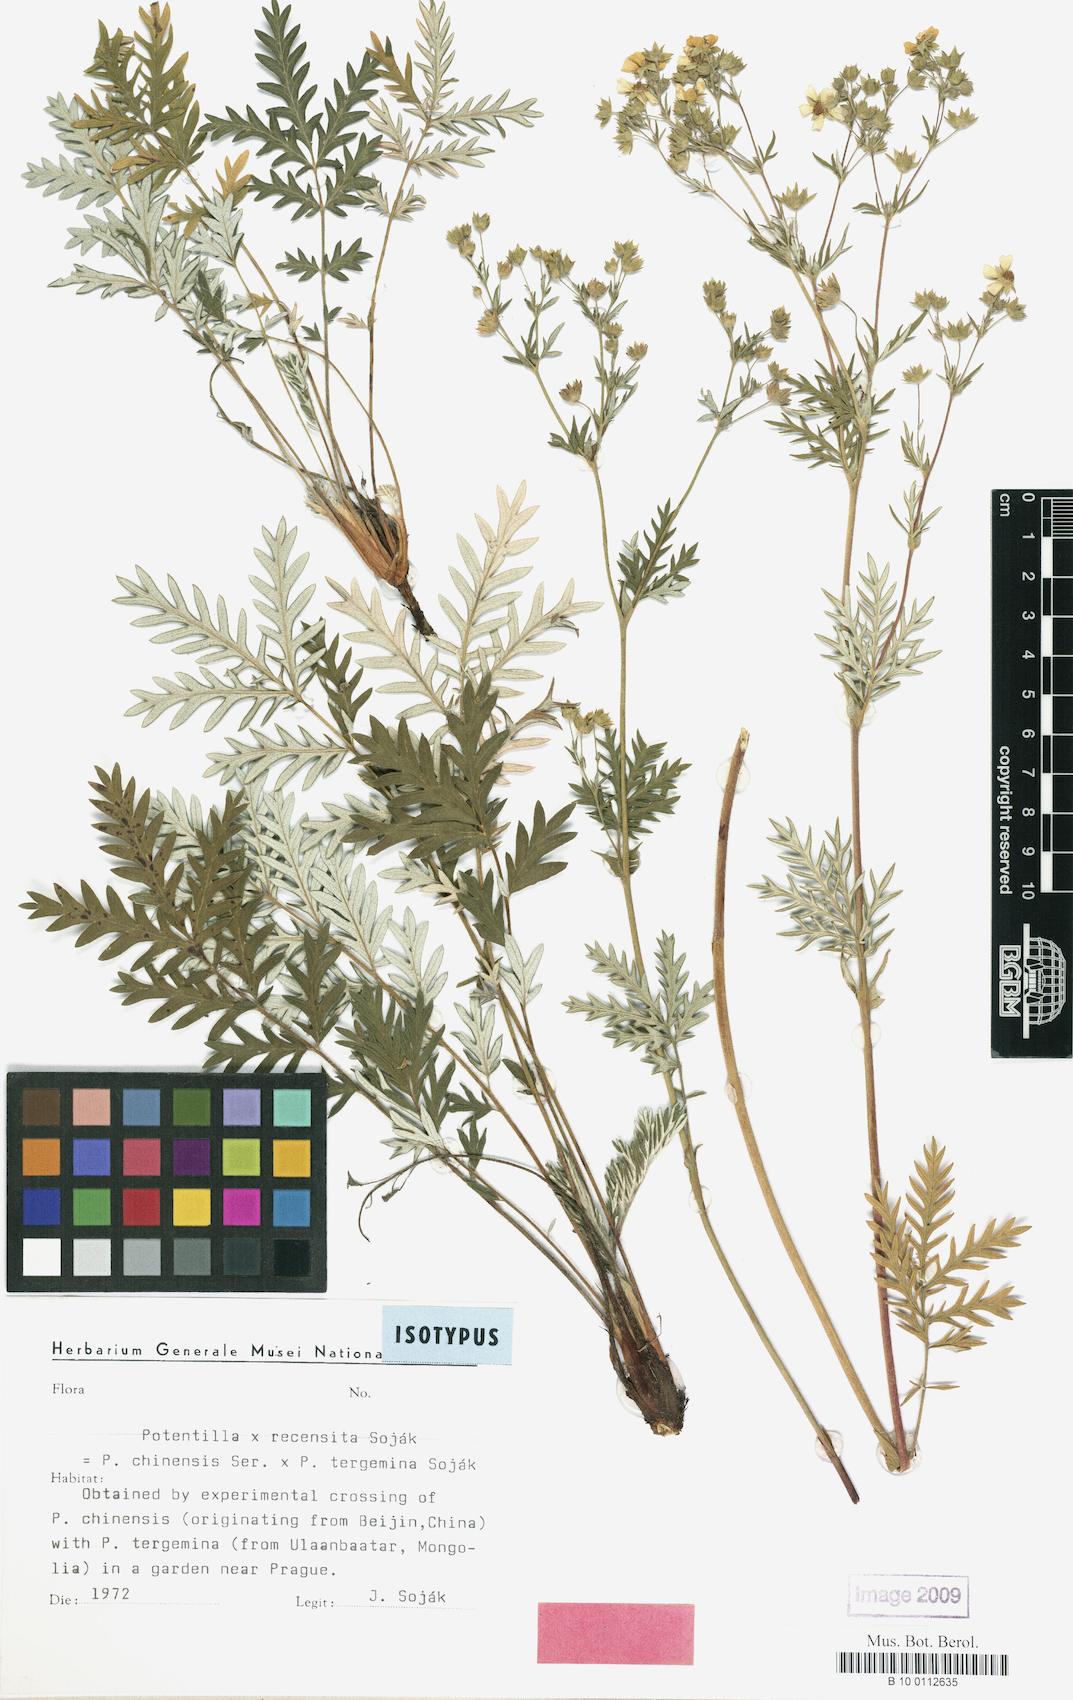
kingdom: Plantae
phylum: Tracheophyta
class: Magnoliopsida
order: Rosales
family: Rosaceae
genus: Potentilla
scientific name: Potentilla recensita
